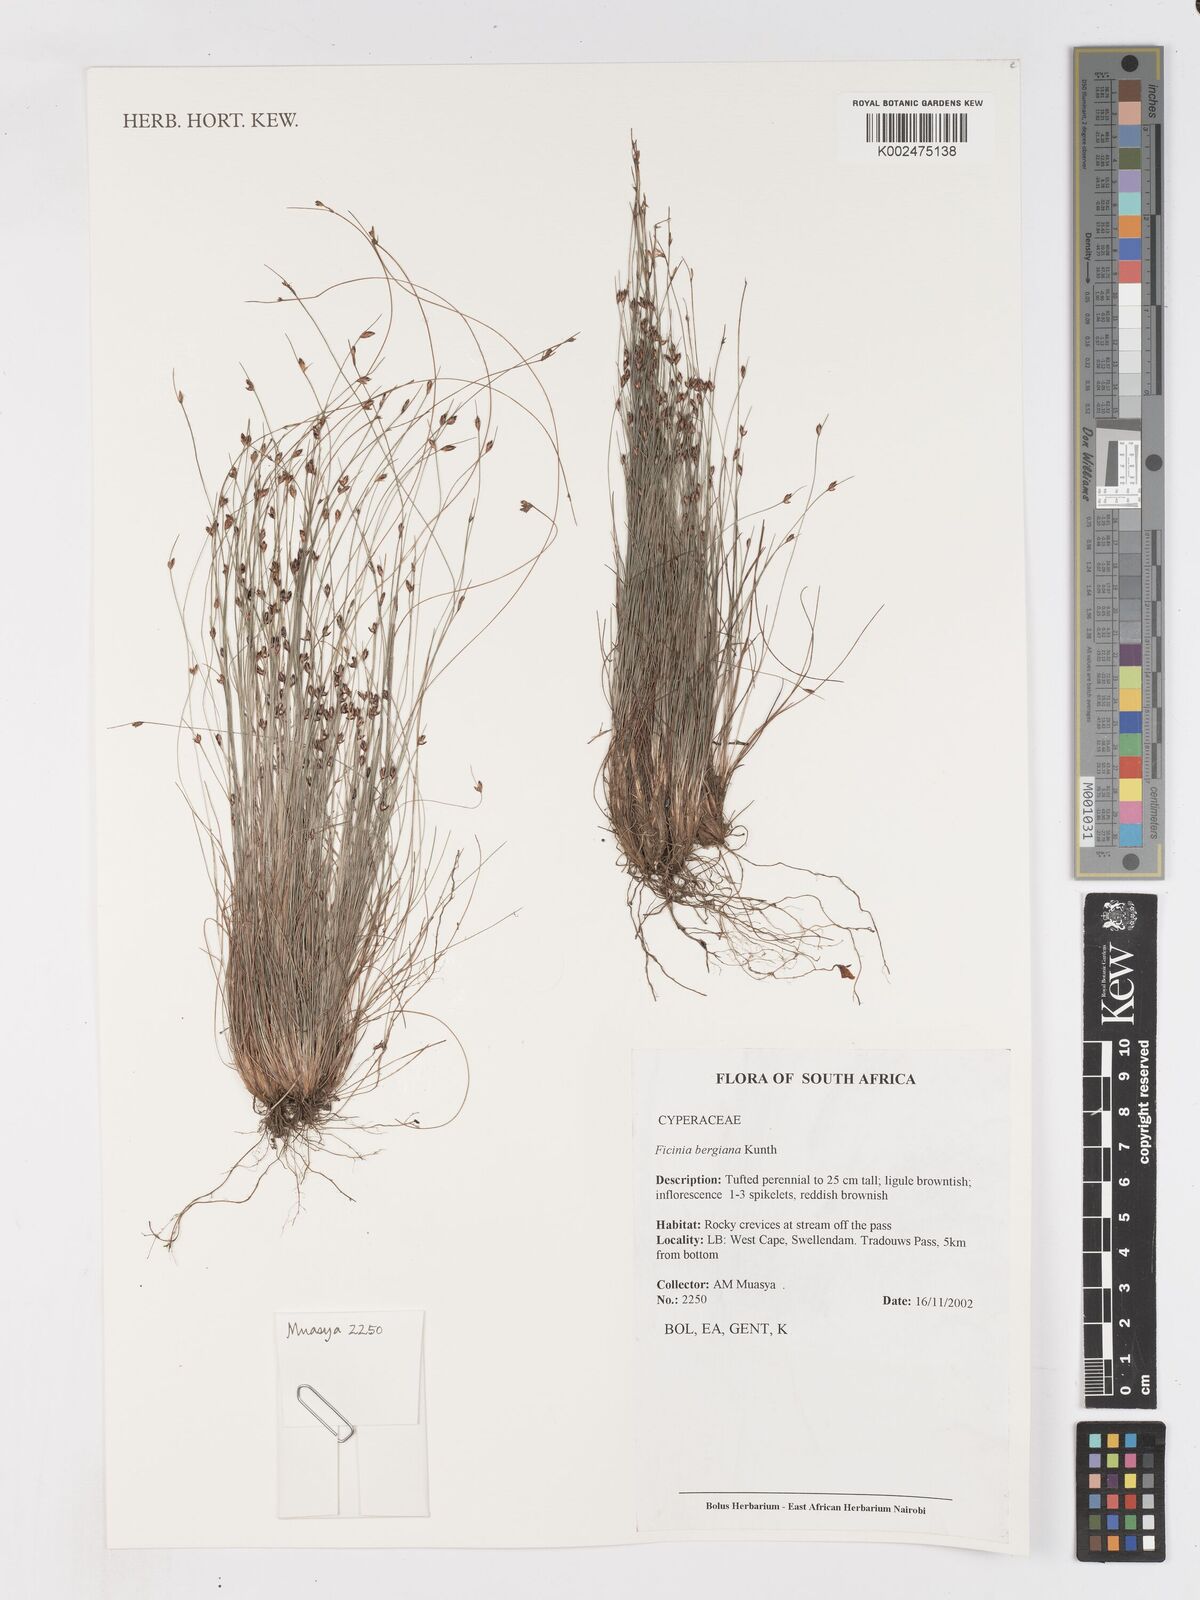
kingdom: Plantae
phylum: Tracheophyta
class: Liliopsida
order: Poales
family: Cyperaceae
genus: Ficinia
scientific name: Ficinia tristachya
